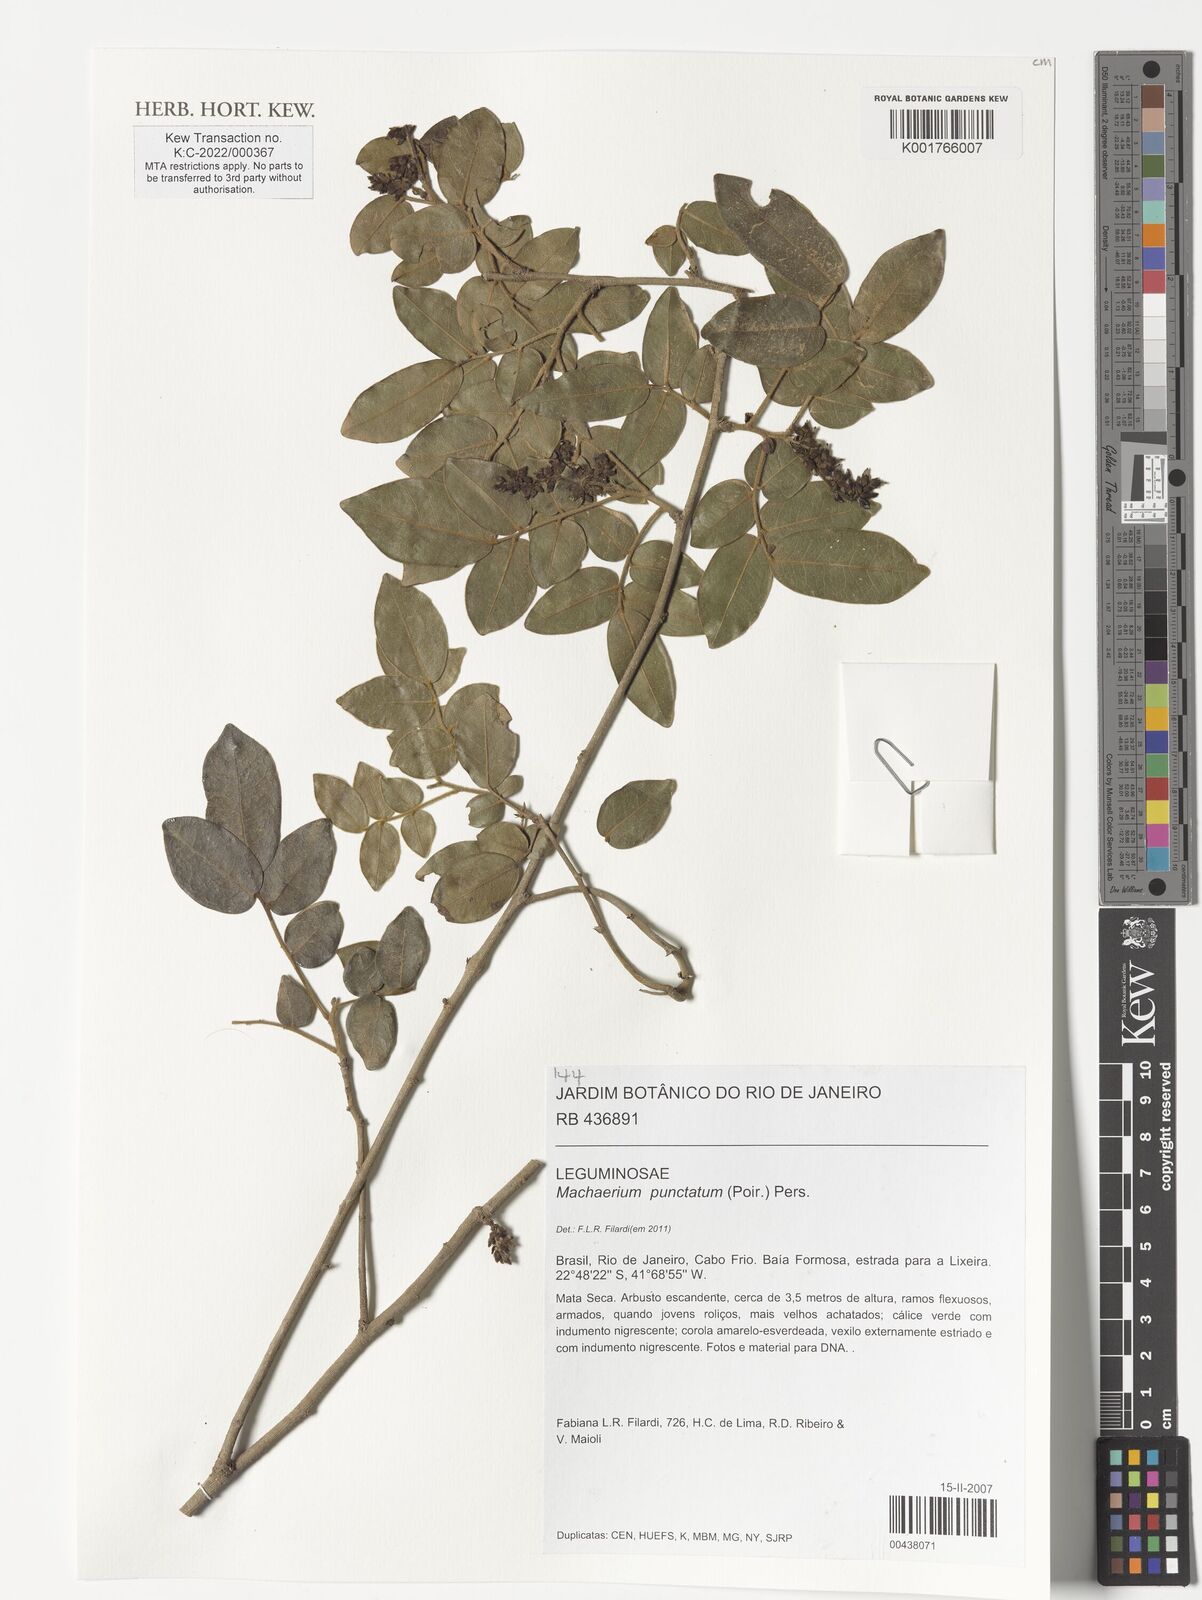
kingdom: Plantae
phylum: Tracheophyta
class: Magnoliopsida
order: Fabales
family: Fabaceae
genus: Machaerium
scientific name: Machaerium punctatum
